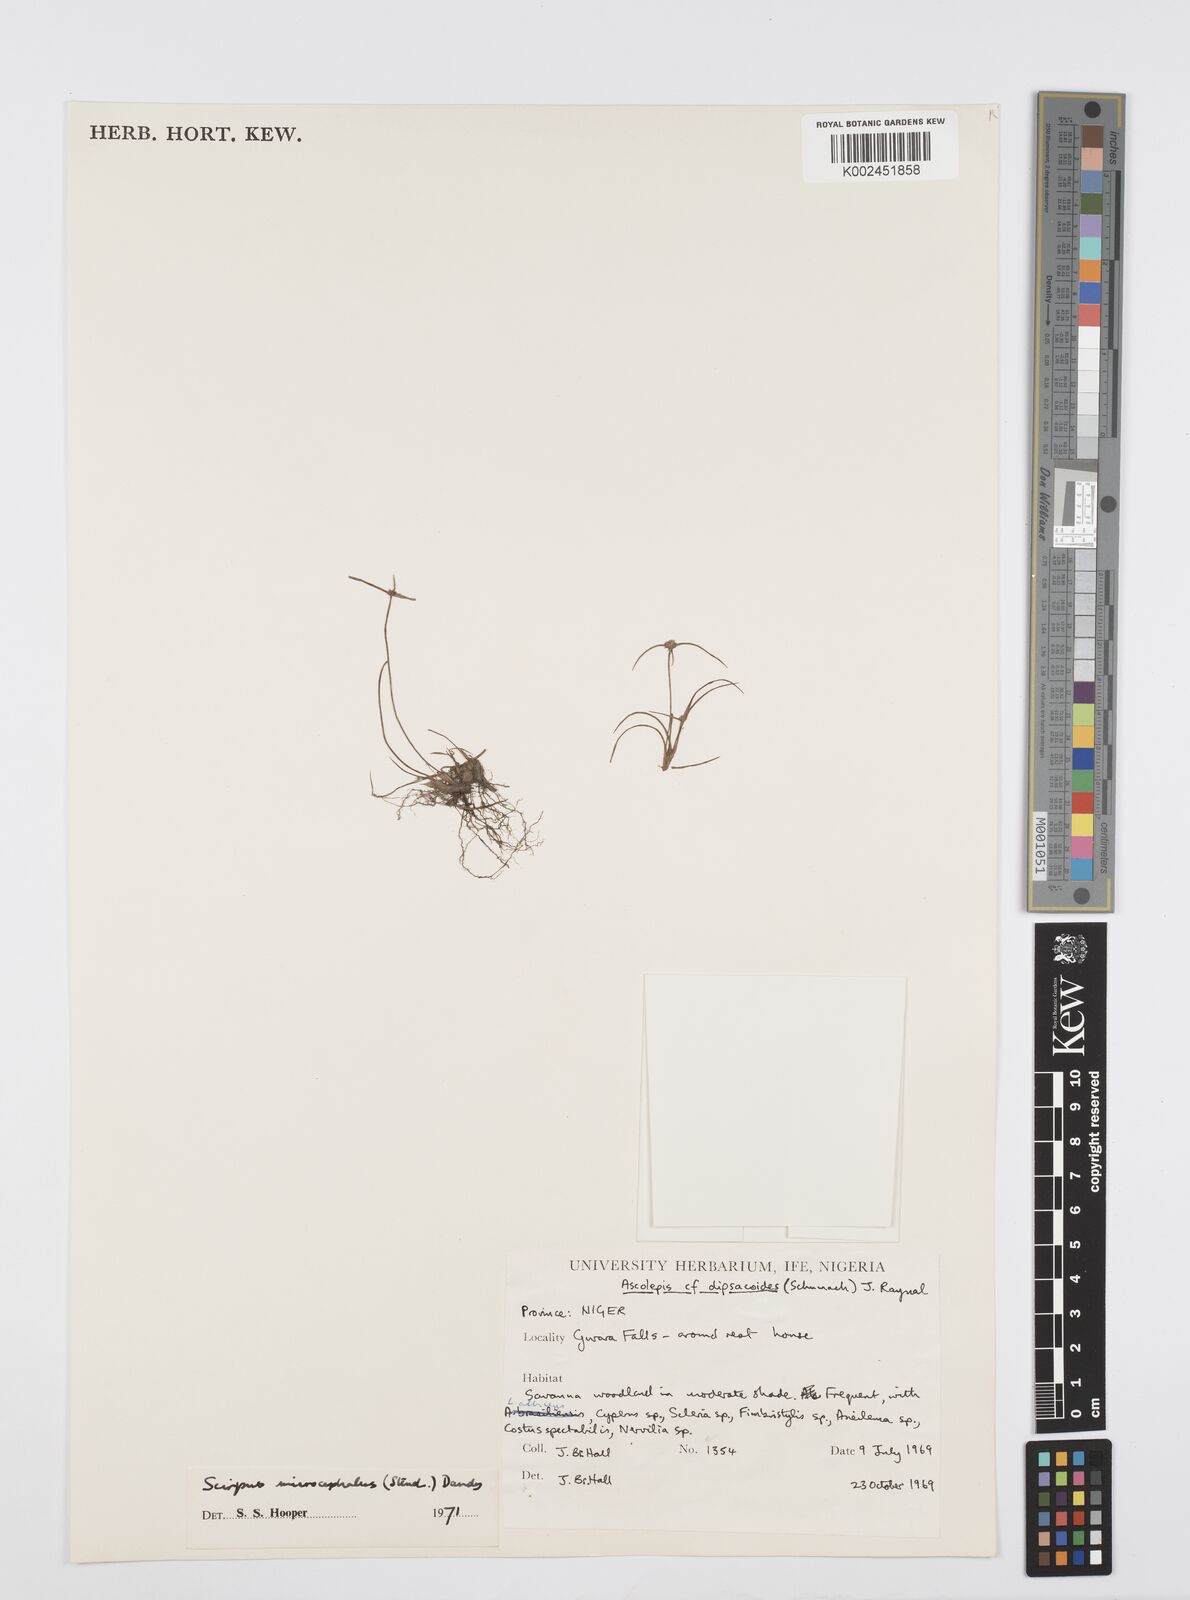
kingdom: Plantae
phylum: Tracheophyta
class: Liliopsida
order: Poales
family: Cyperaceae
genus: Cyperus
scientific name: Cyperus microcephalus
